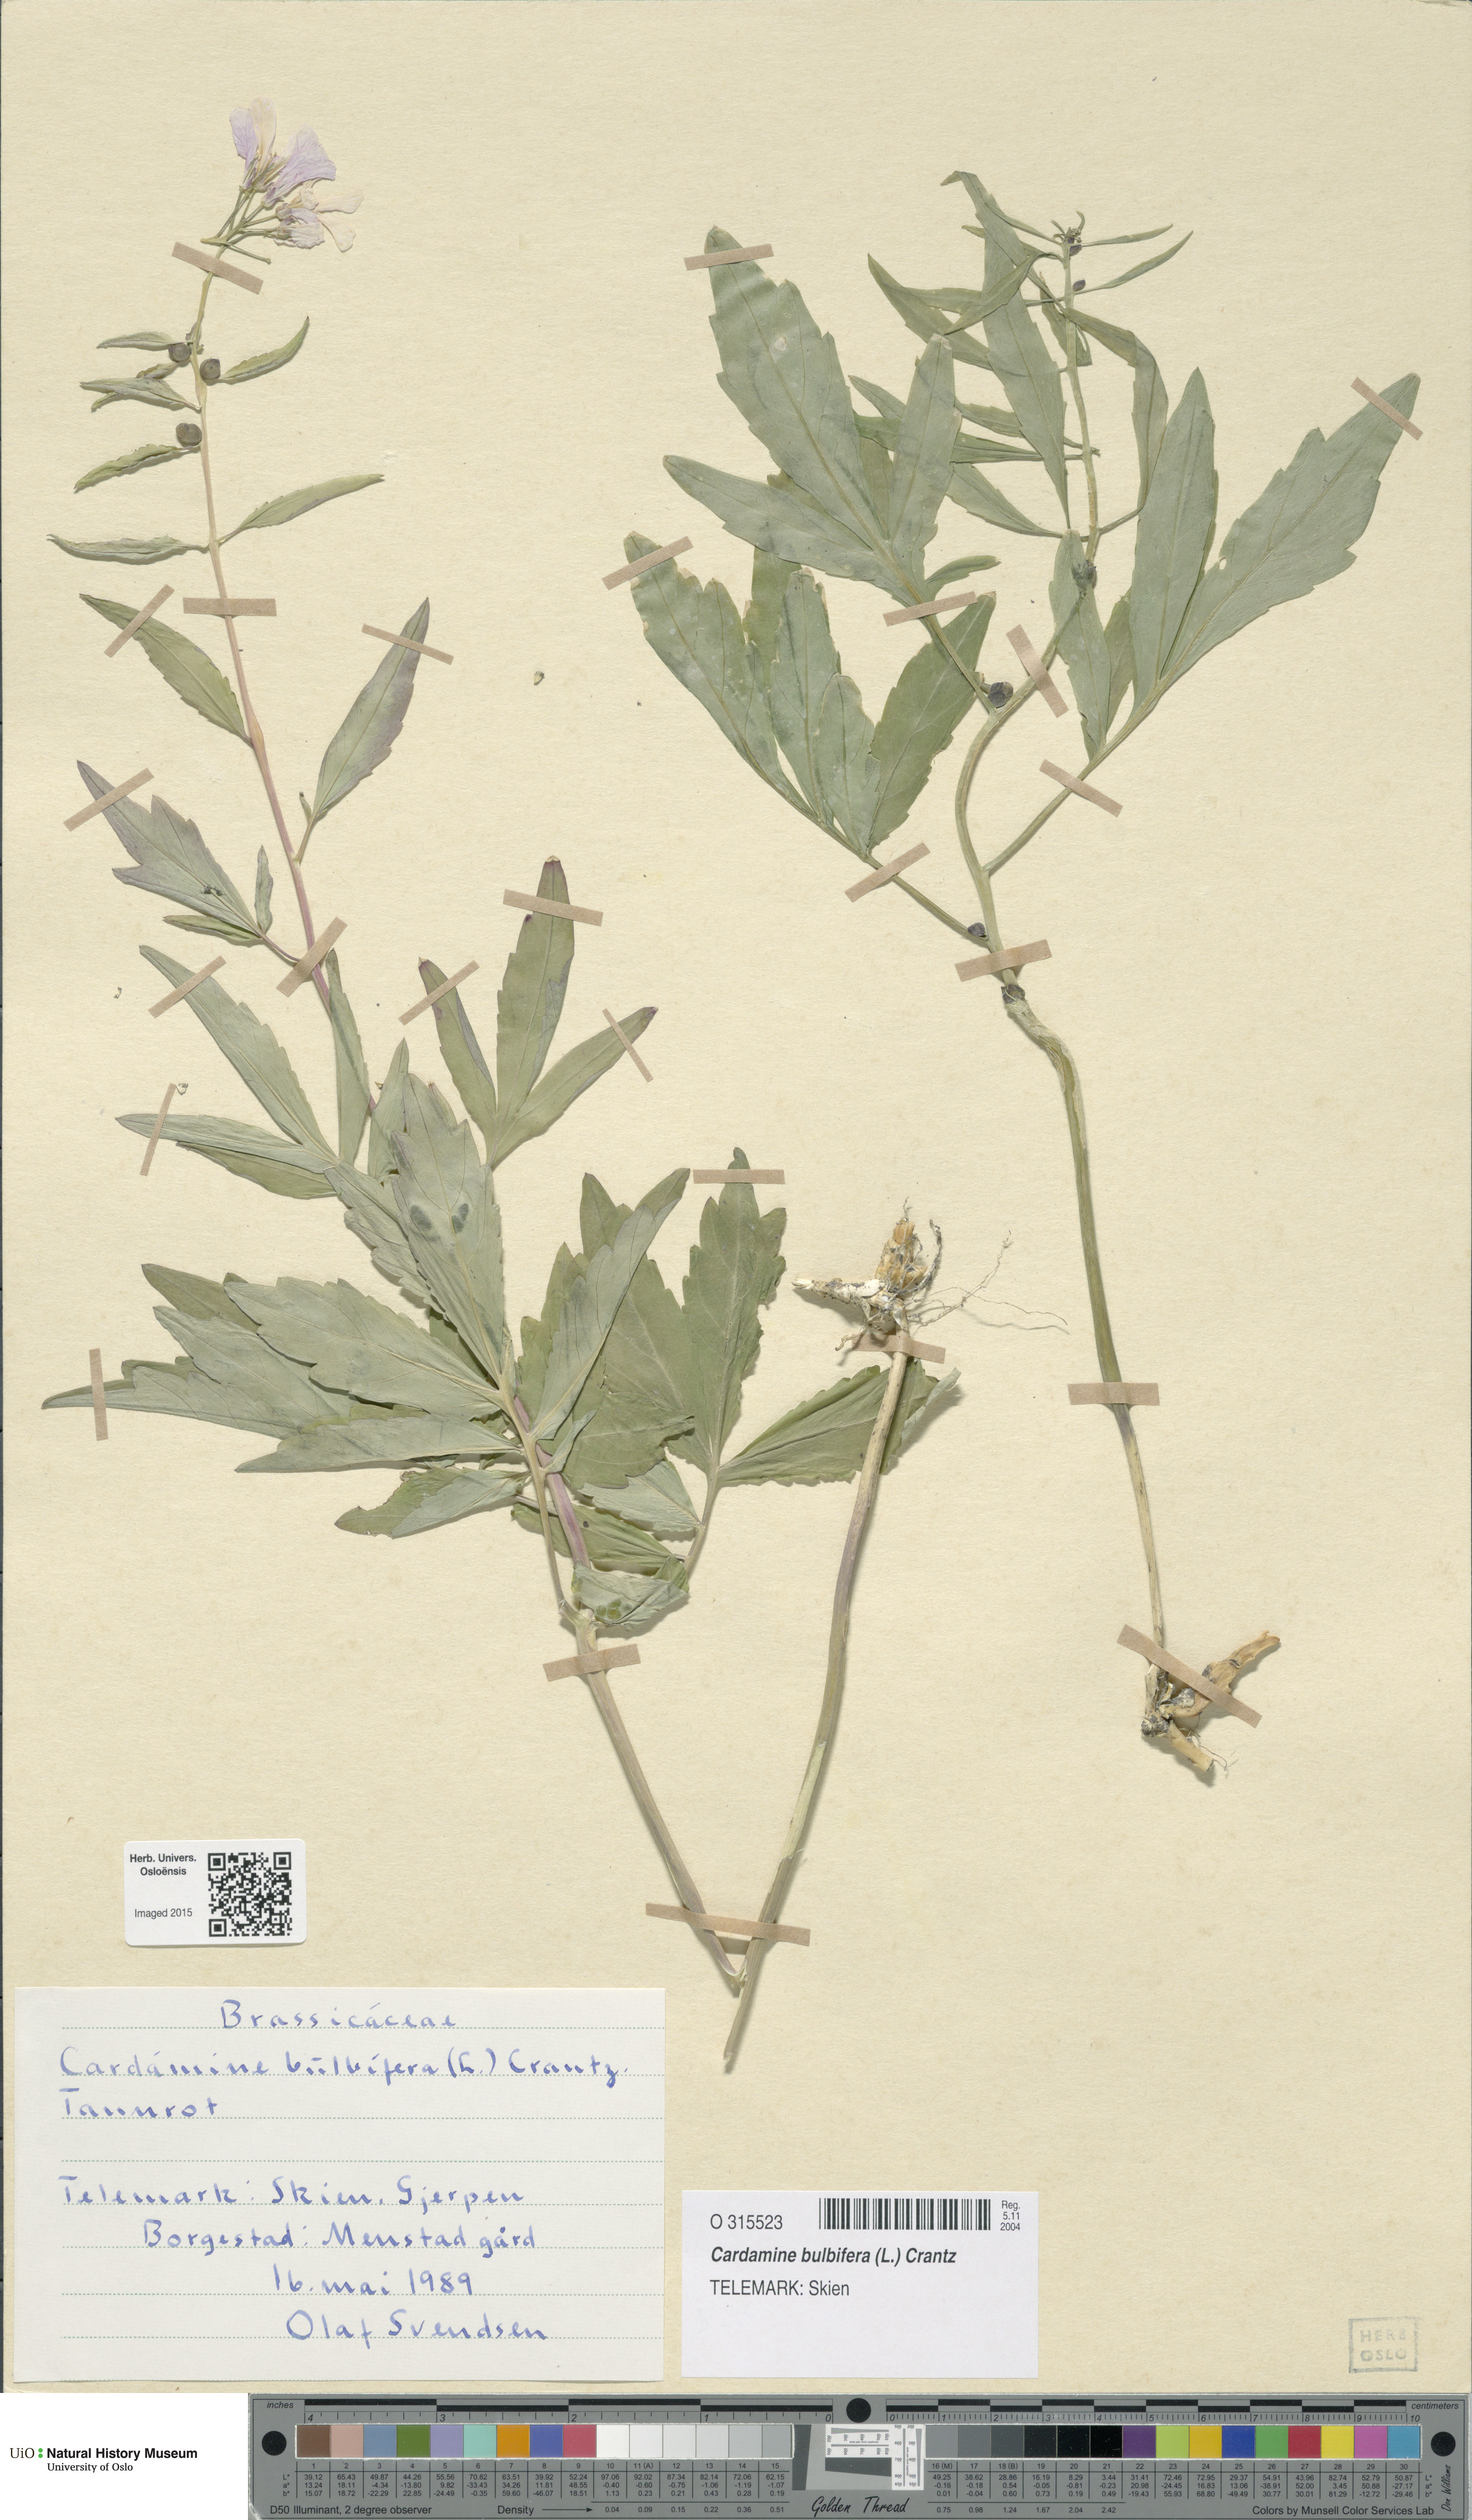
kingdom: Plantae
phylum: Tracheophyta
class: Magnoliopsida
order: Brassicales
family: Brassicaceae
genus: Cardamine
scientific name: Cardamine bulbifera
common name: Coralroot bittercress
